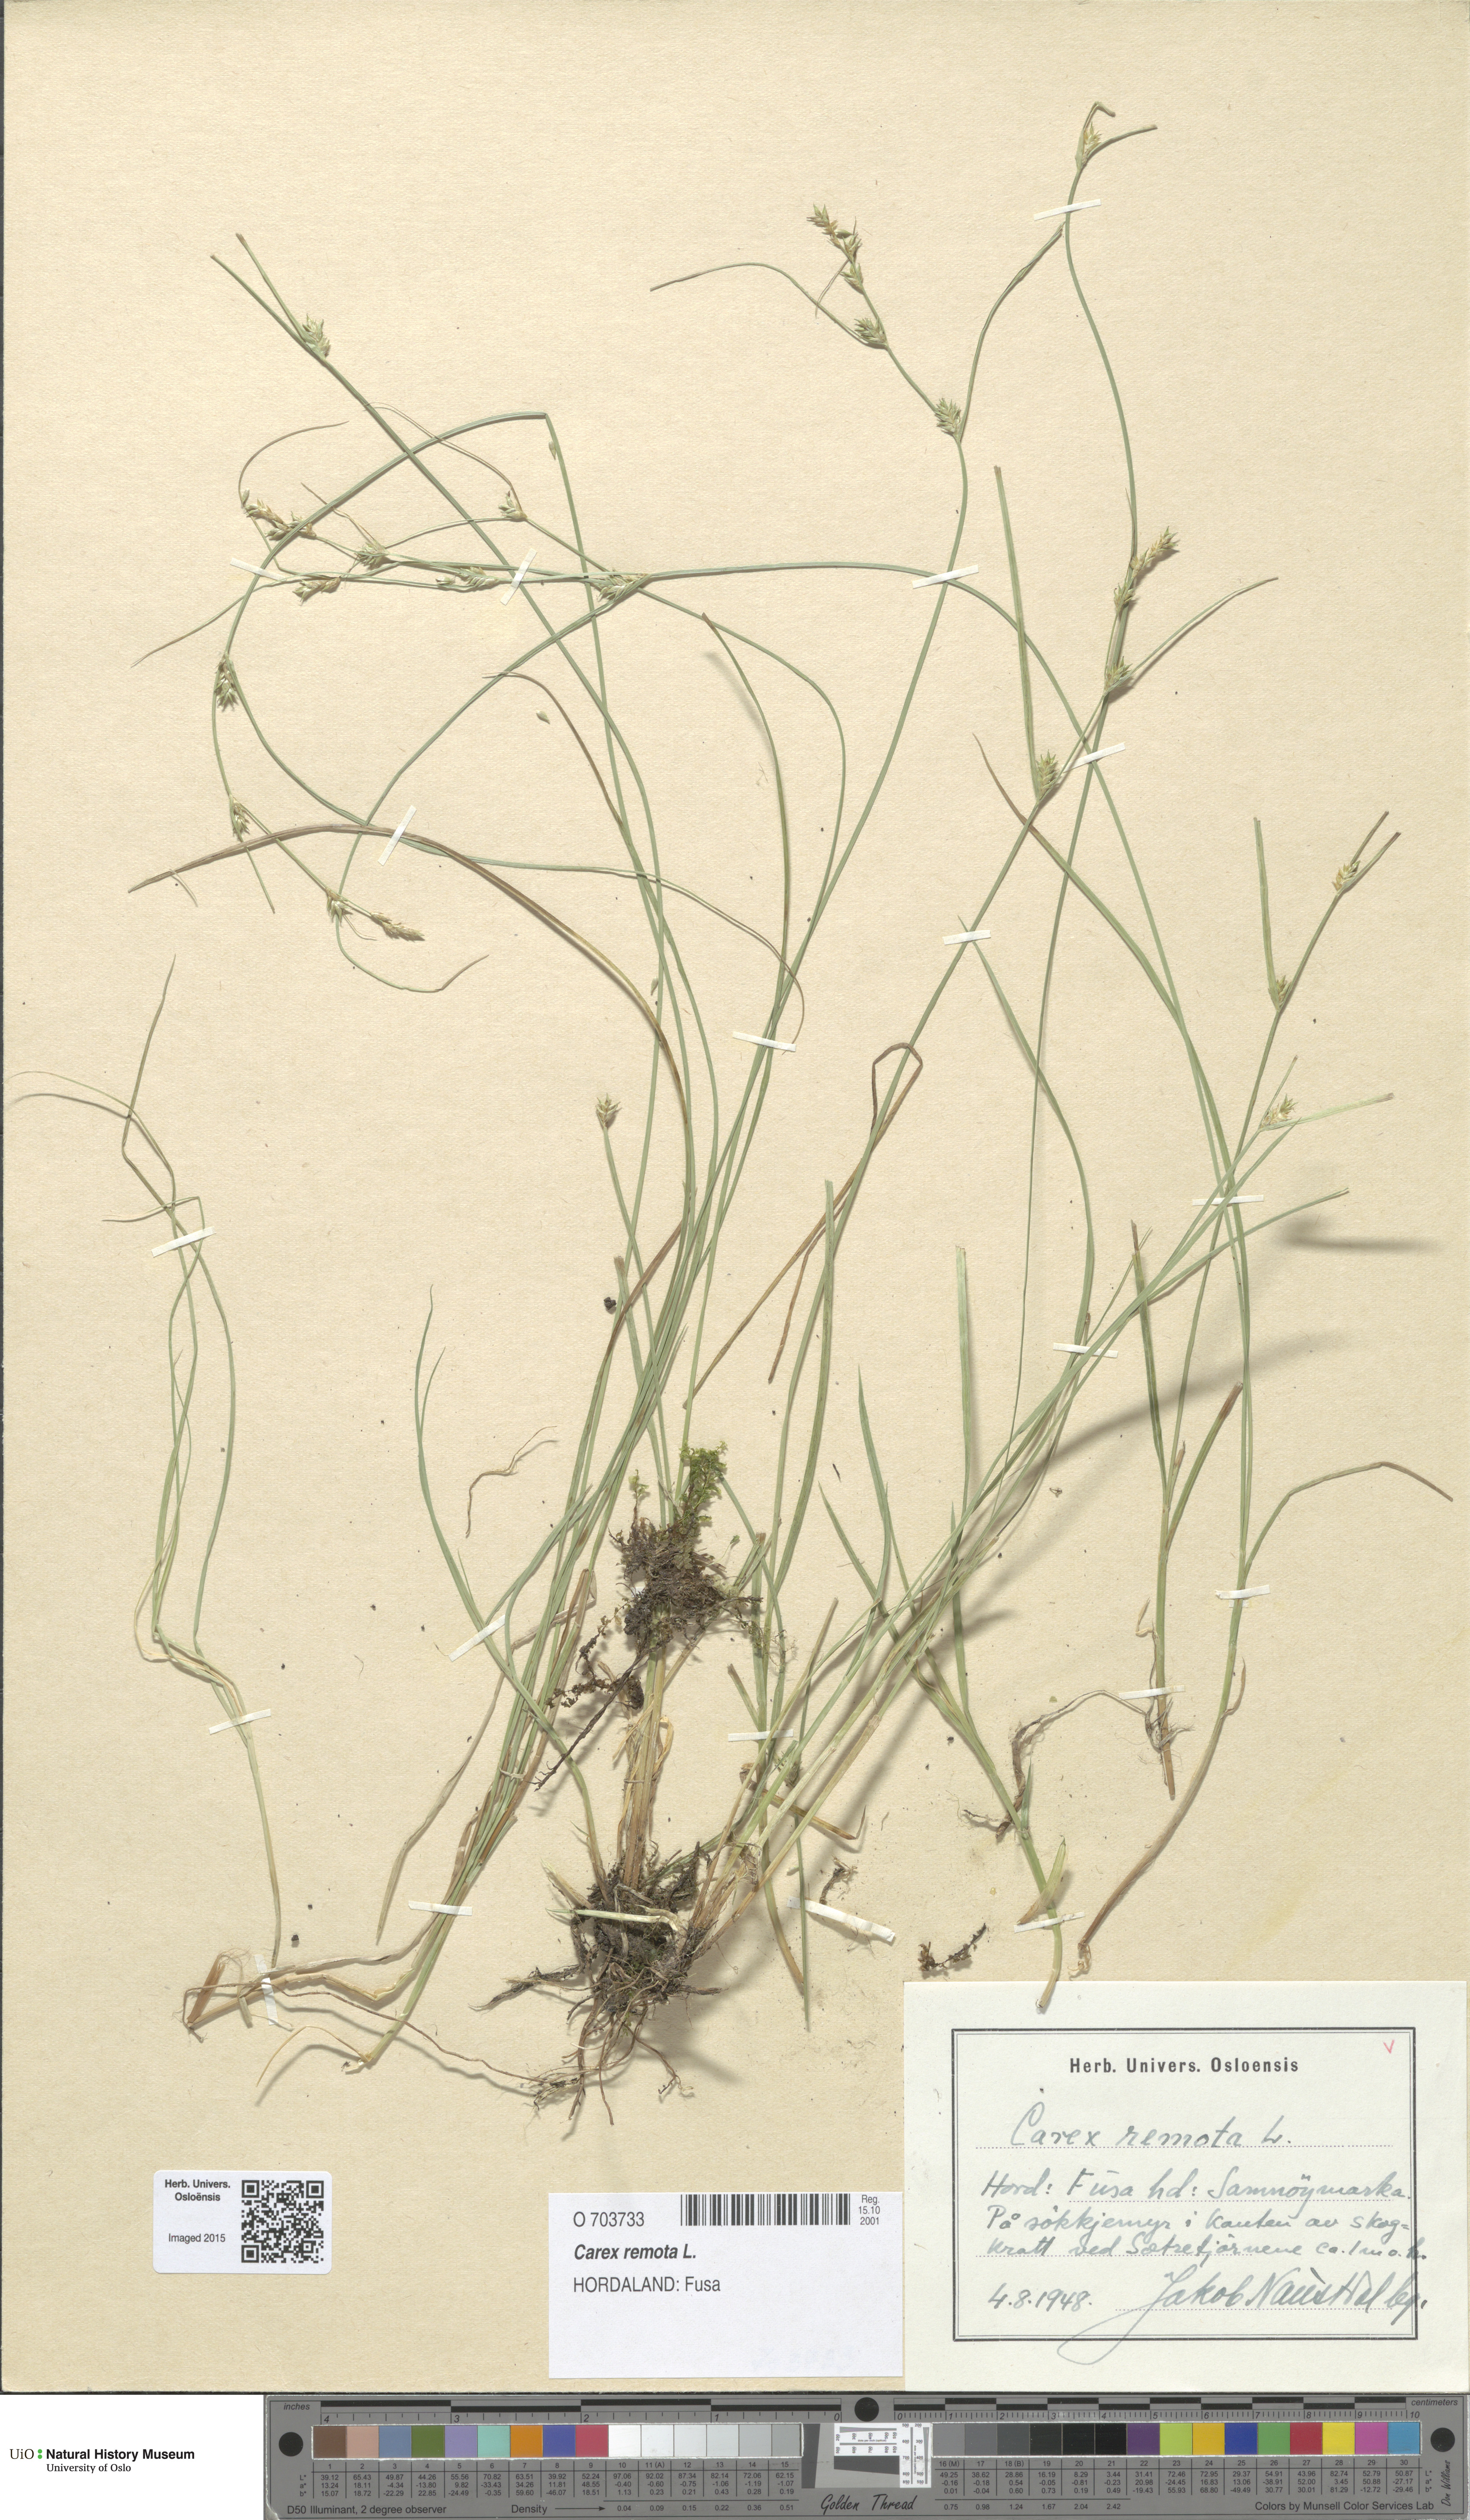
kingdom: Plantae
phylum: Tracheophyta
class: Liliopsida
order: Poales
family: Cyperaceae
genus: Carex
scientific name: Carex remota
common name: Remote sedge
